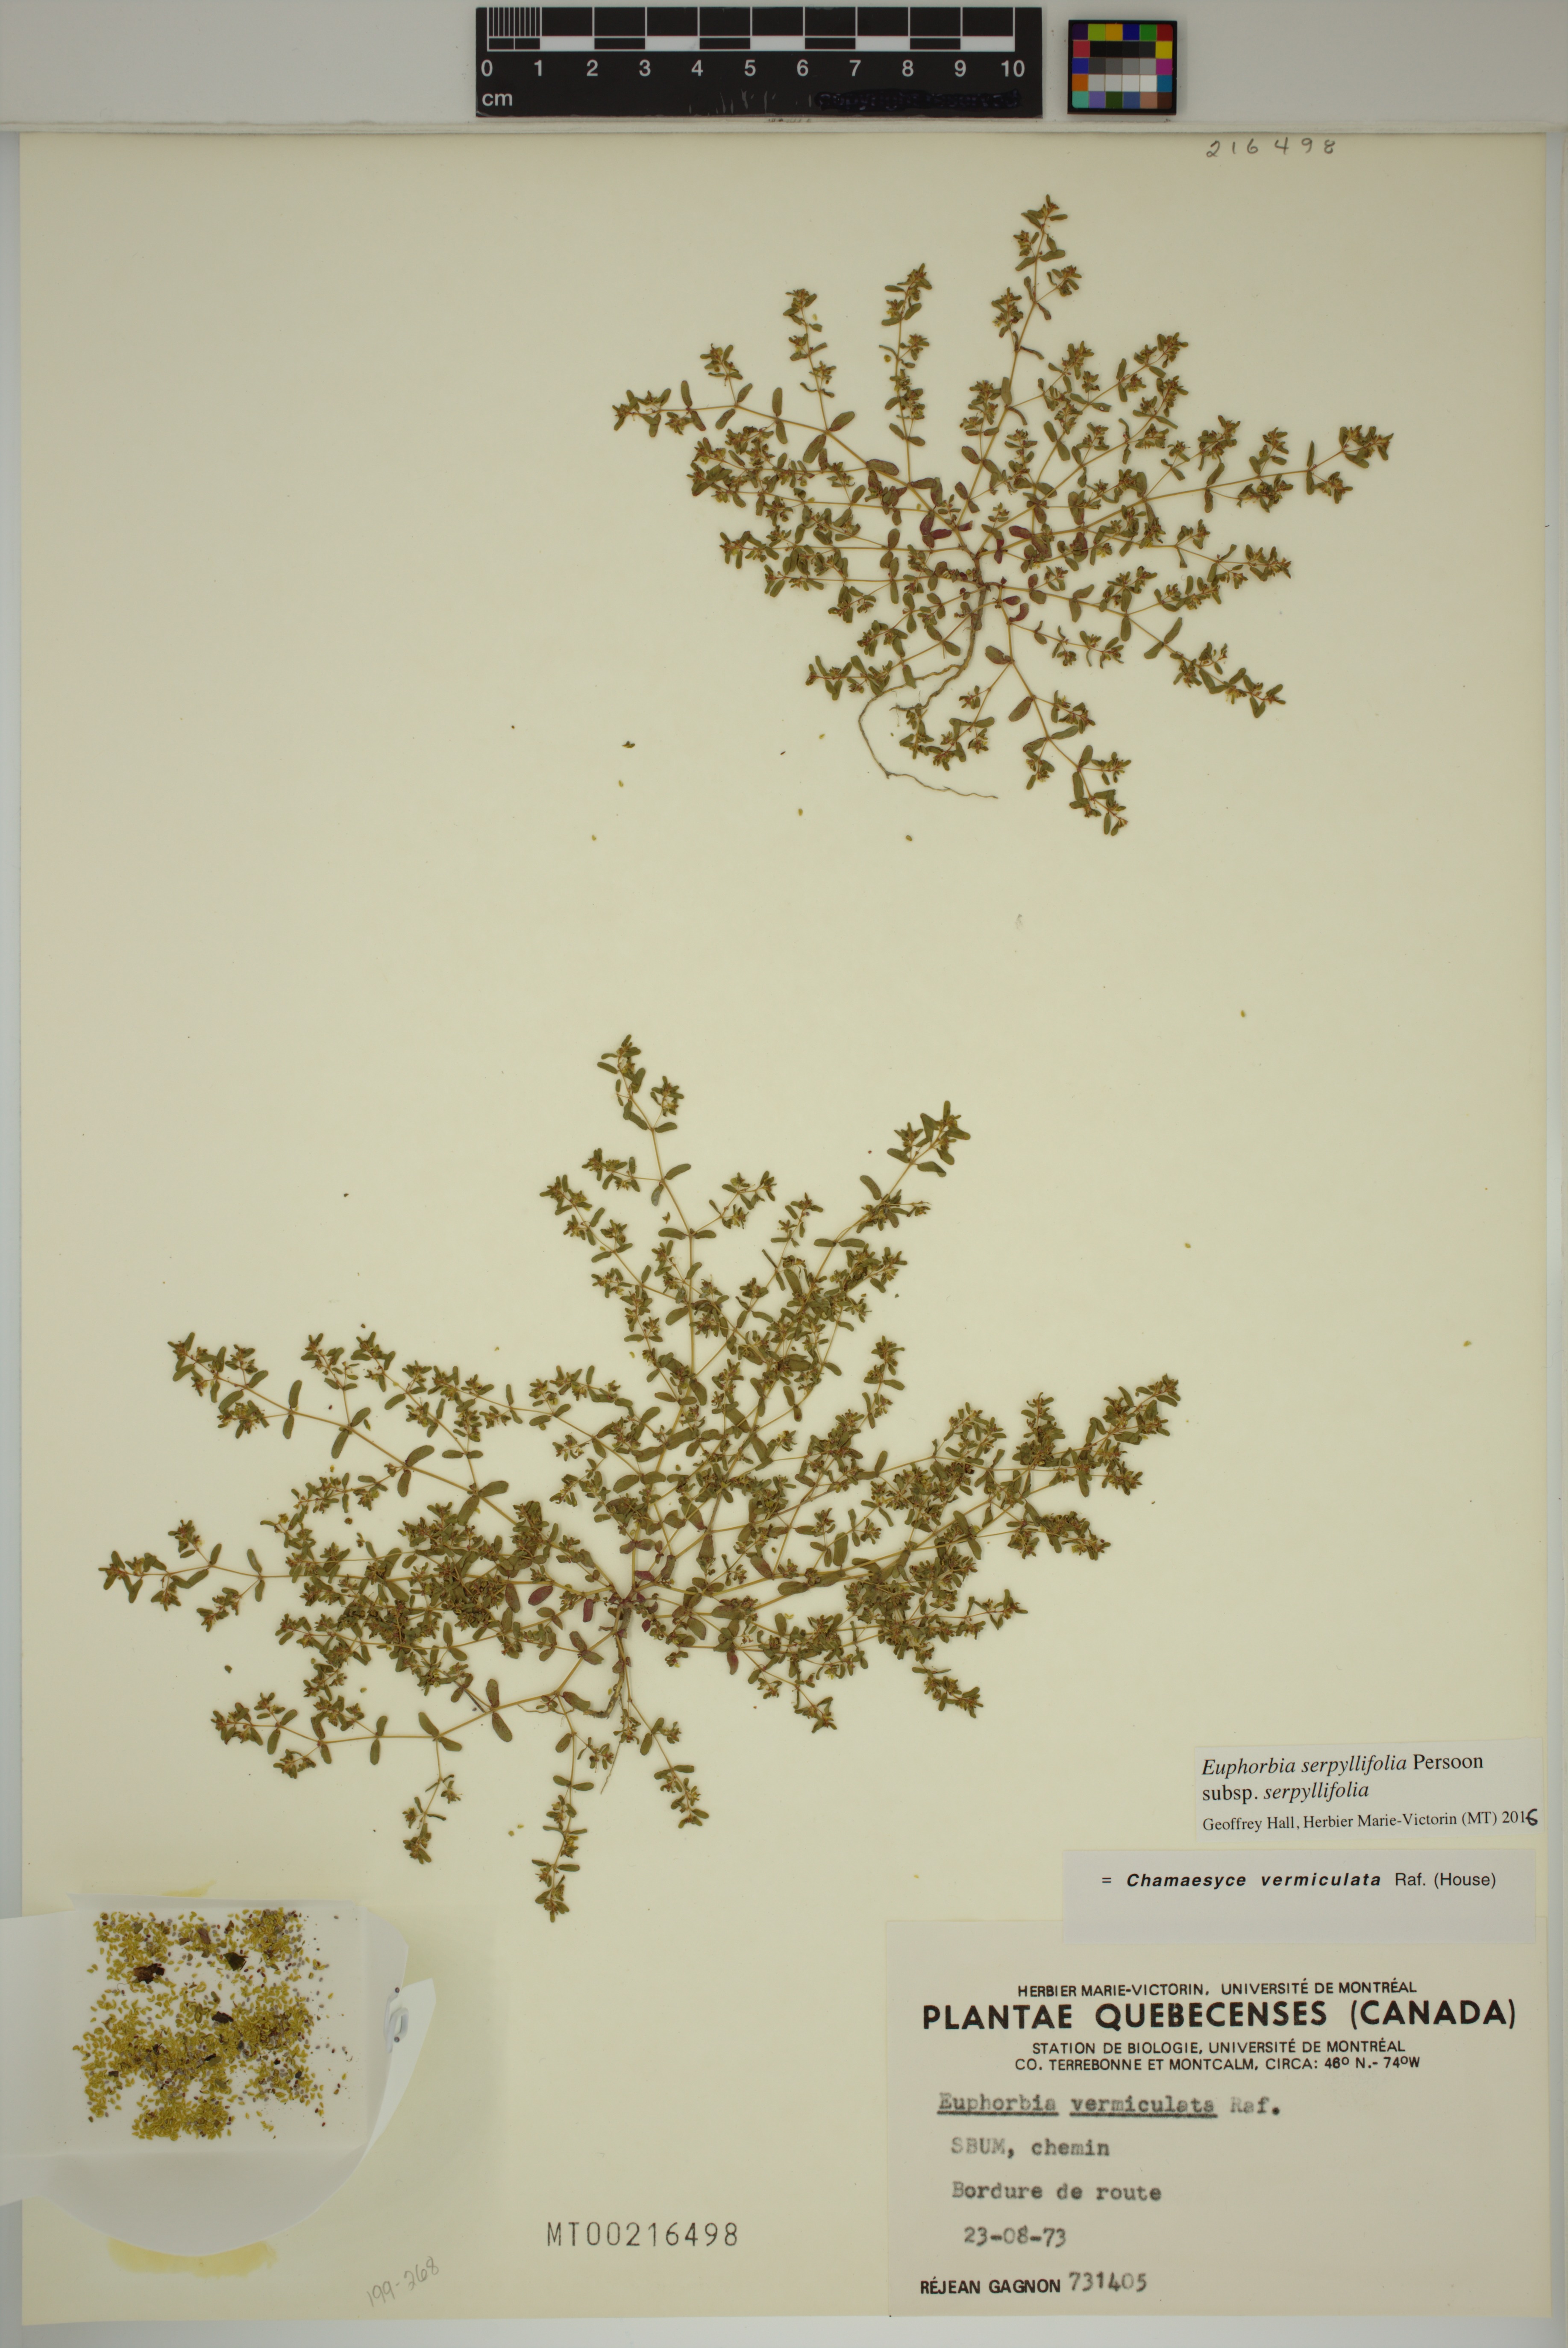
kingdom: Plantae
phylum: Tracheophyta
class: Magnoliopsida
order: Malpighiales
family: Euphorbiaceae
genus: Euphorbia
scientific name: Euphorbia serpillifolia
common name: Thyme-leaf spurge
